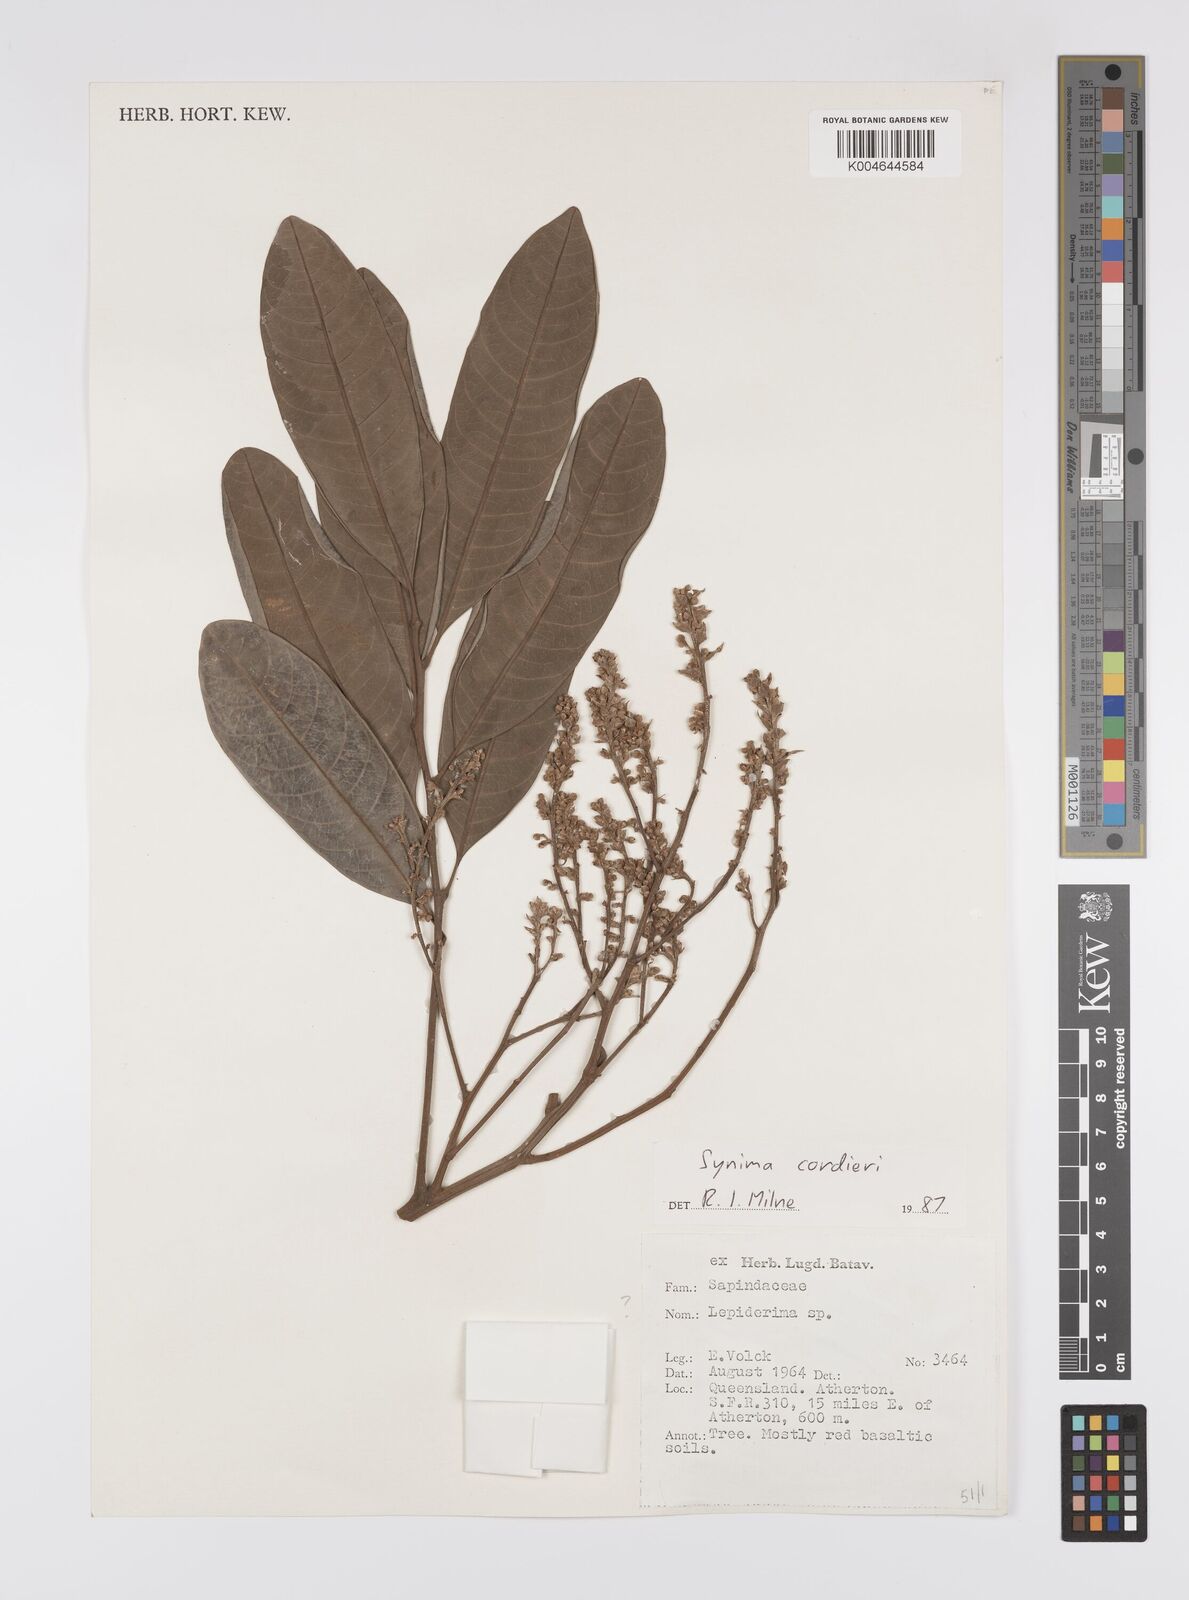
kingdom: Plantae
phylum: Tracheophyta
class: Magnoliopsida
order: Sapindales
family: Sapindaceae
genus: Synima
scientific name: Synima
